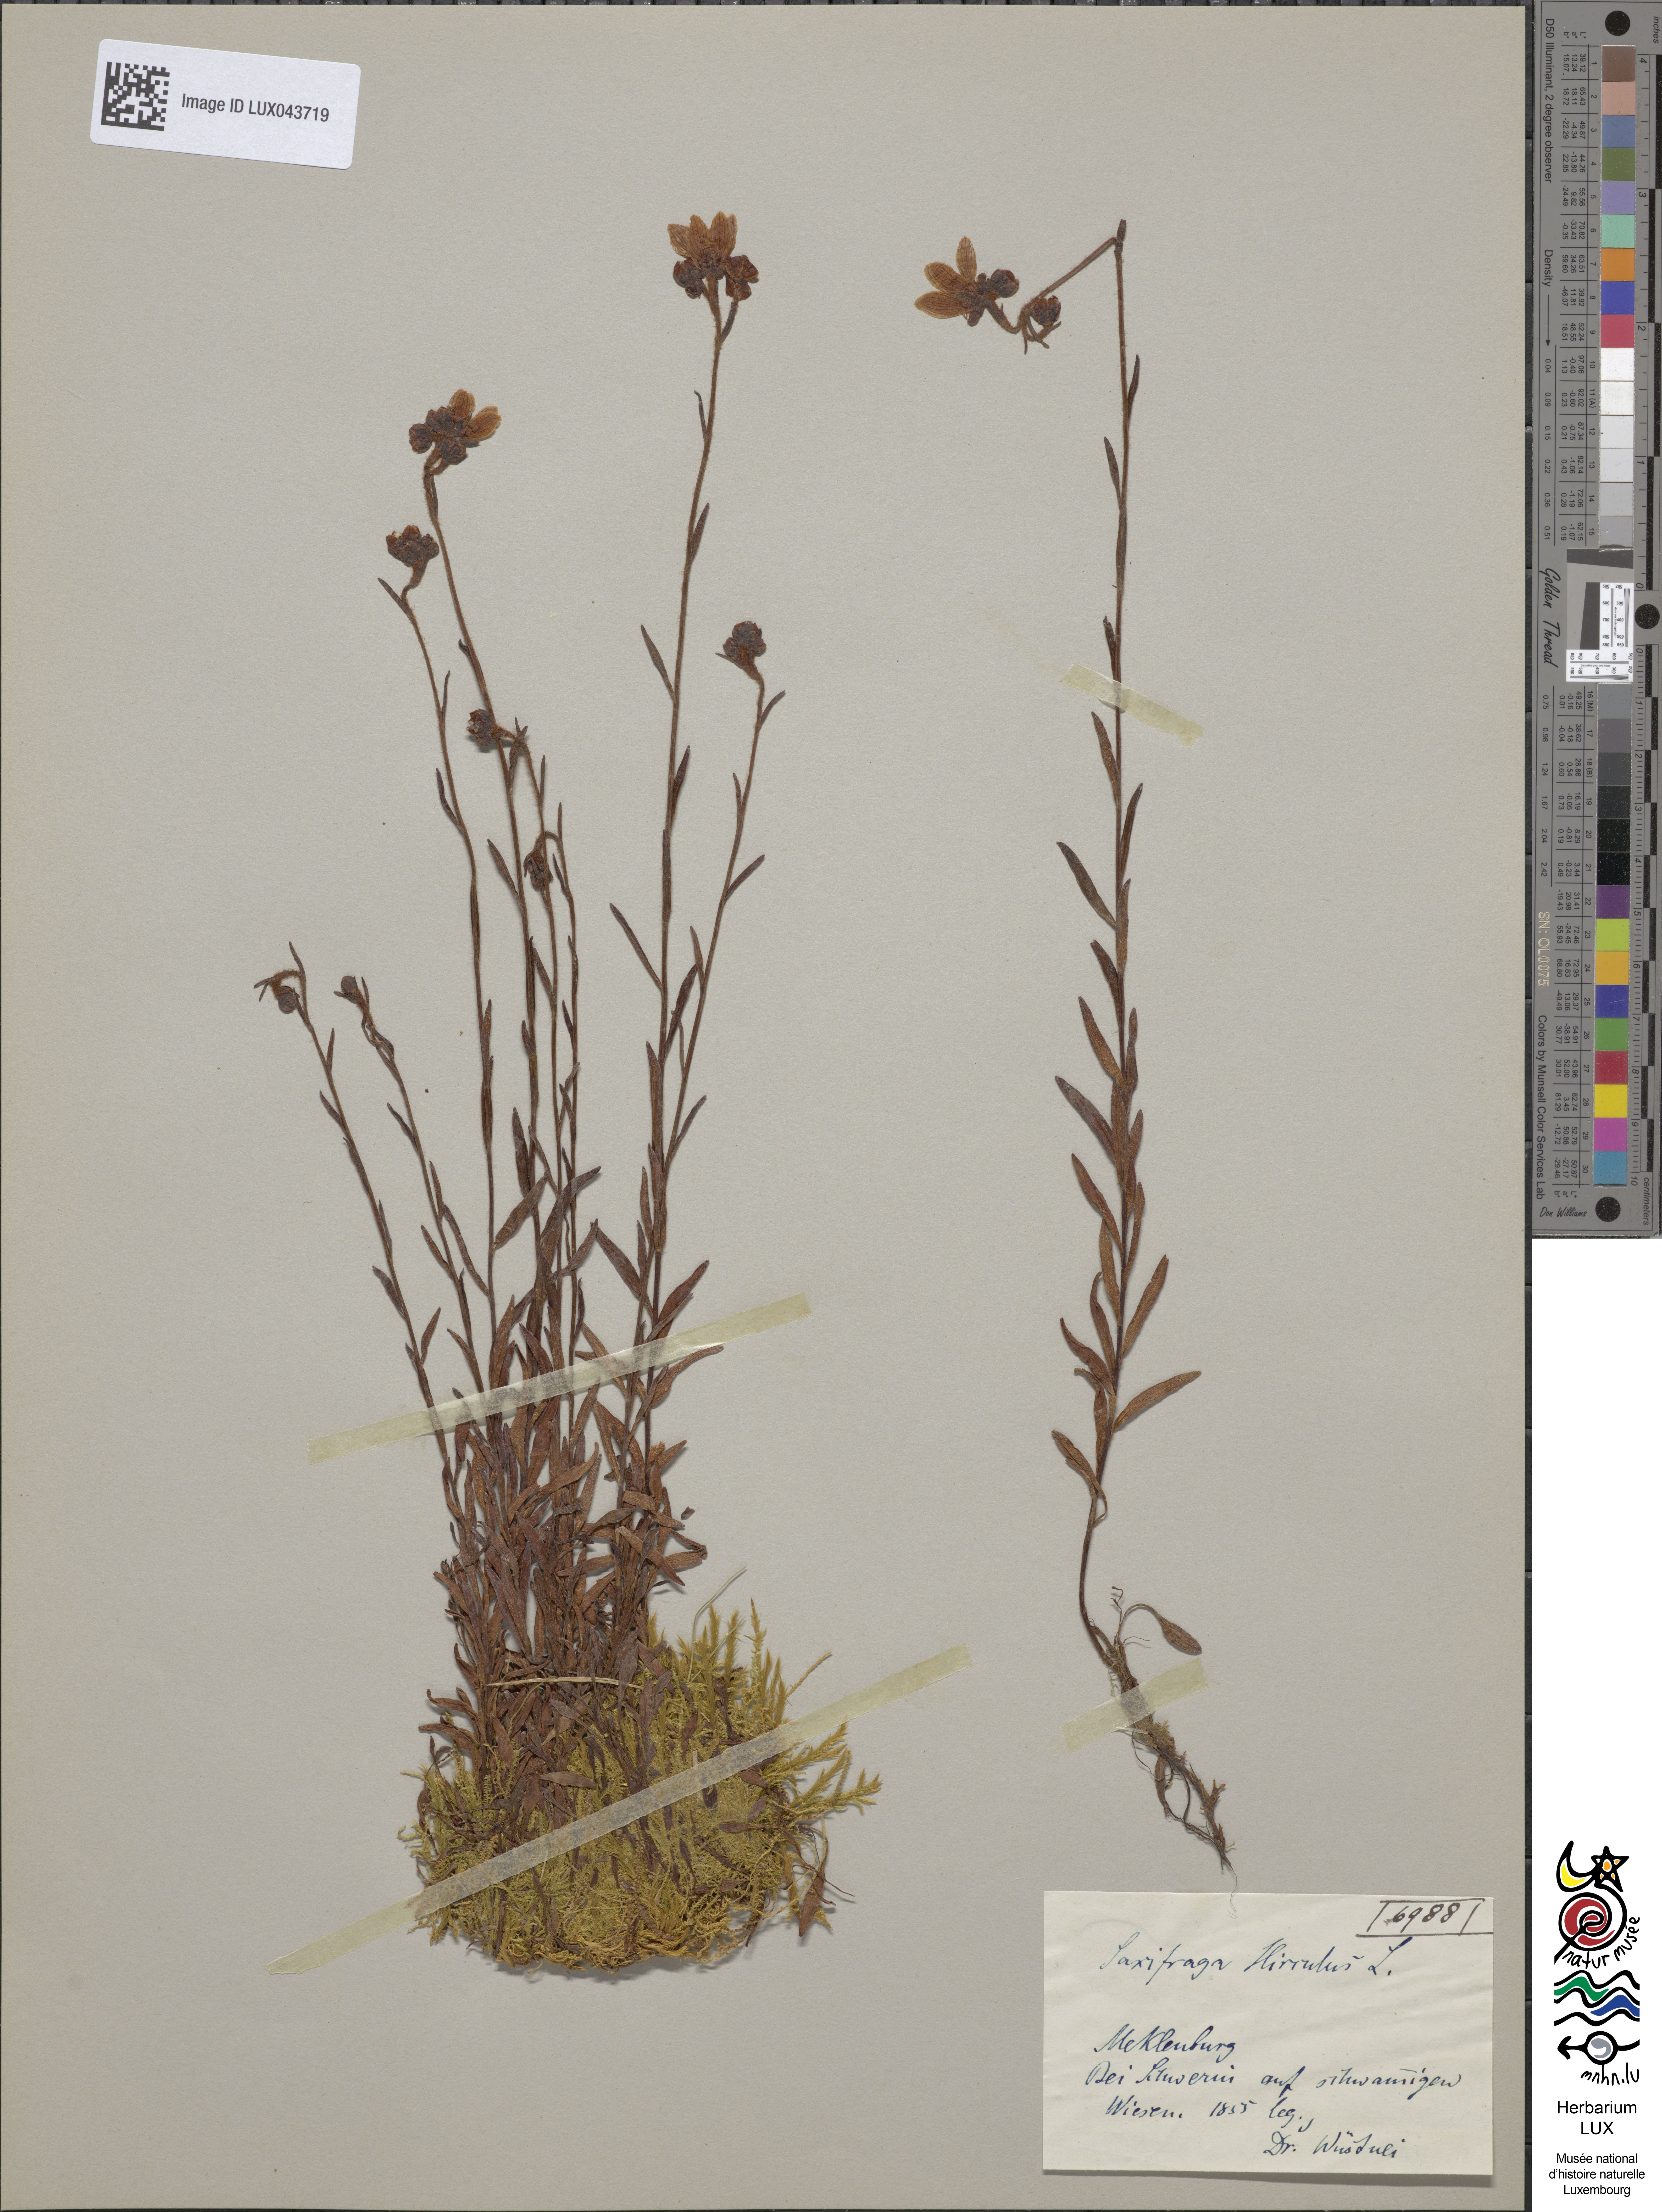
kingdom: Plantae
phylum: Tracheophyta
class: Magnoliopsida
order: Saxifragales
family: Saxifragaceae
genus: Saxifraga
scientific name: Saxifraga hirculus
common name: Yellow marsh saxifrage
